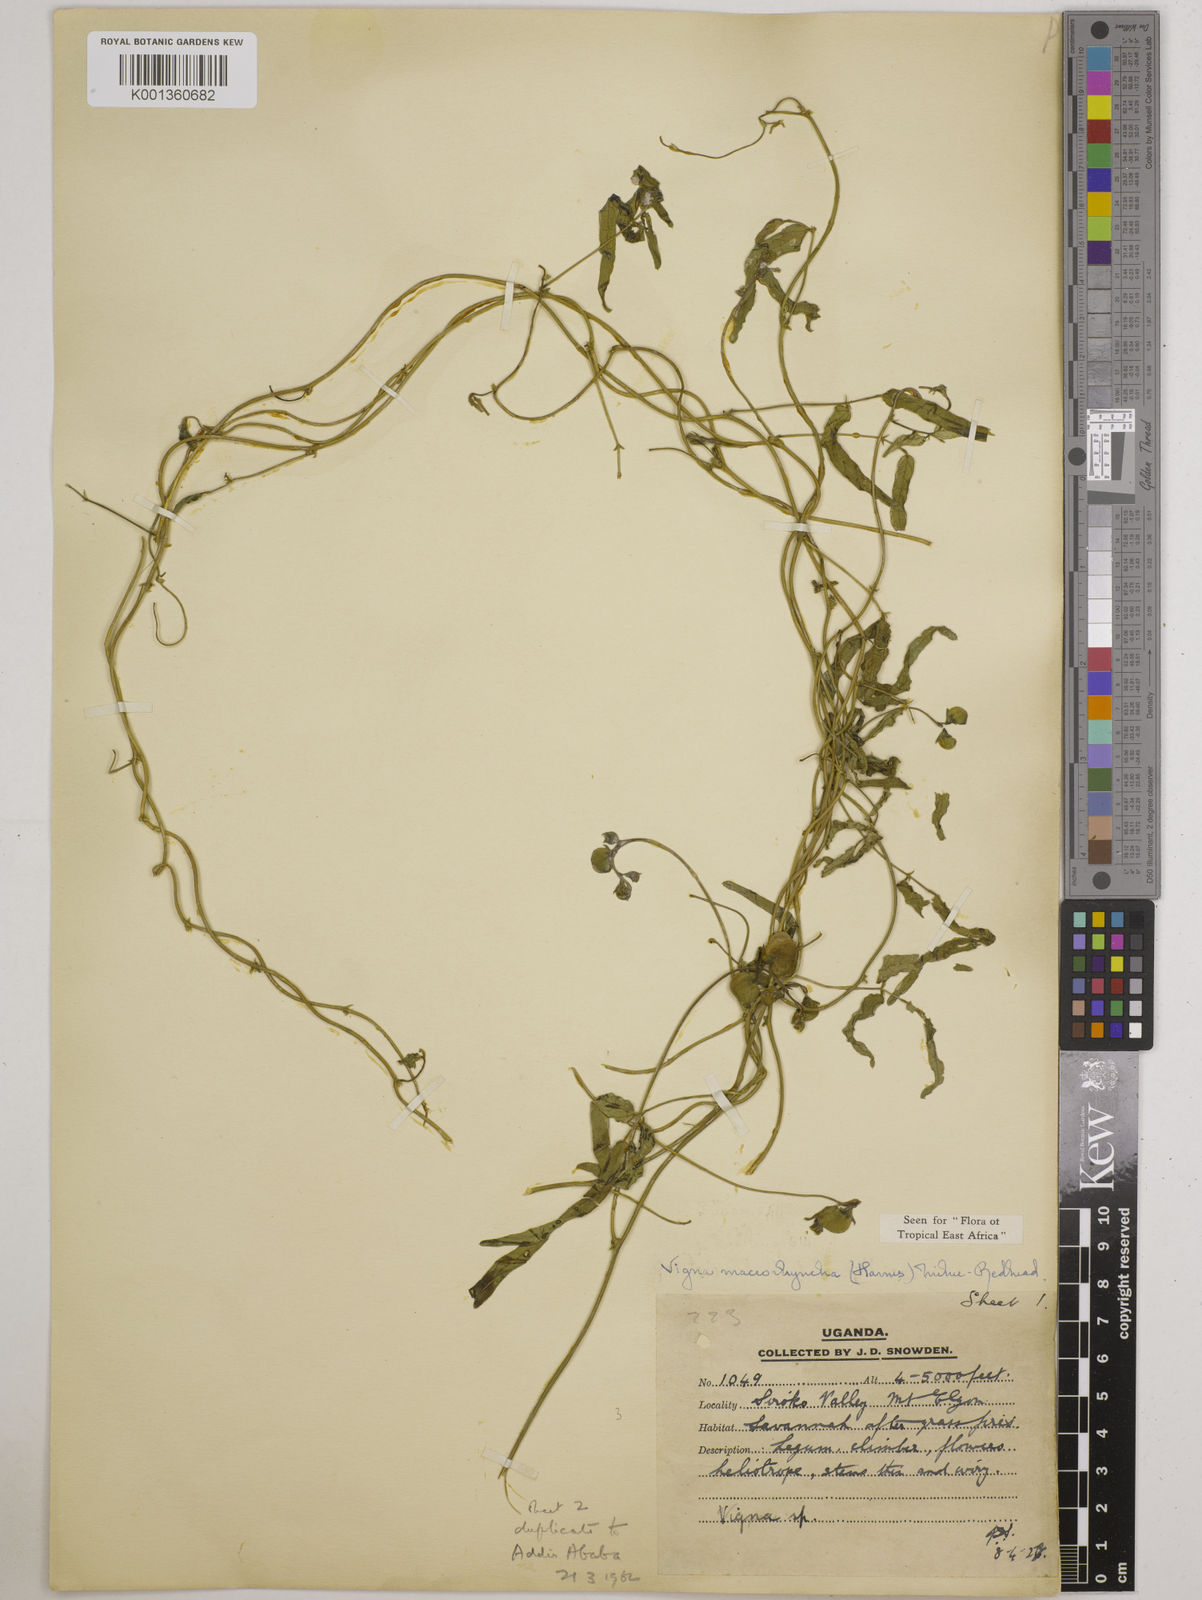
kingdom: Plantae
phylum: Tracheophyta
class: Magnoliopsida
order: Fabales
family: Fabaceae
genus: Wajira
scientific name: Wajira grahamiana
